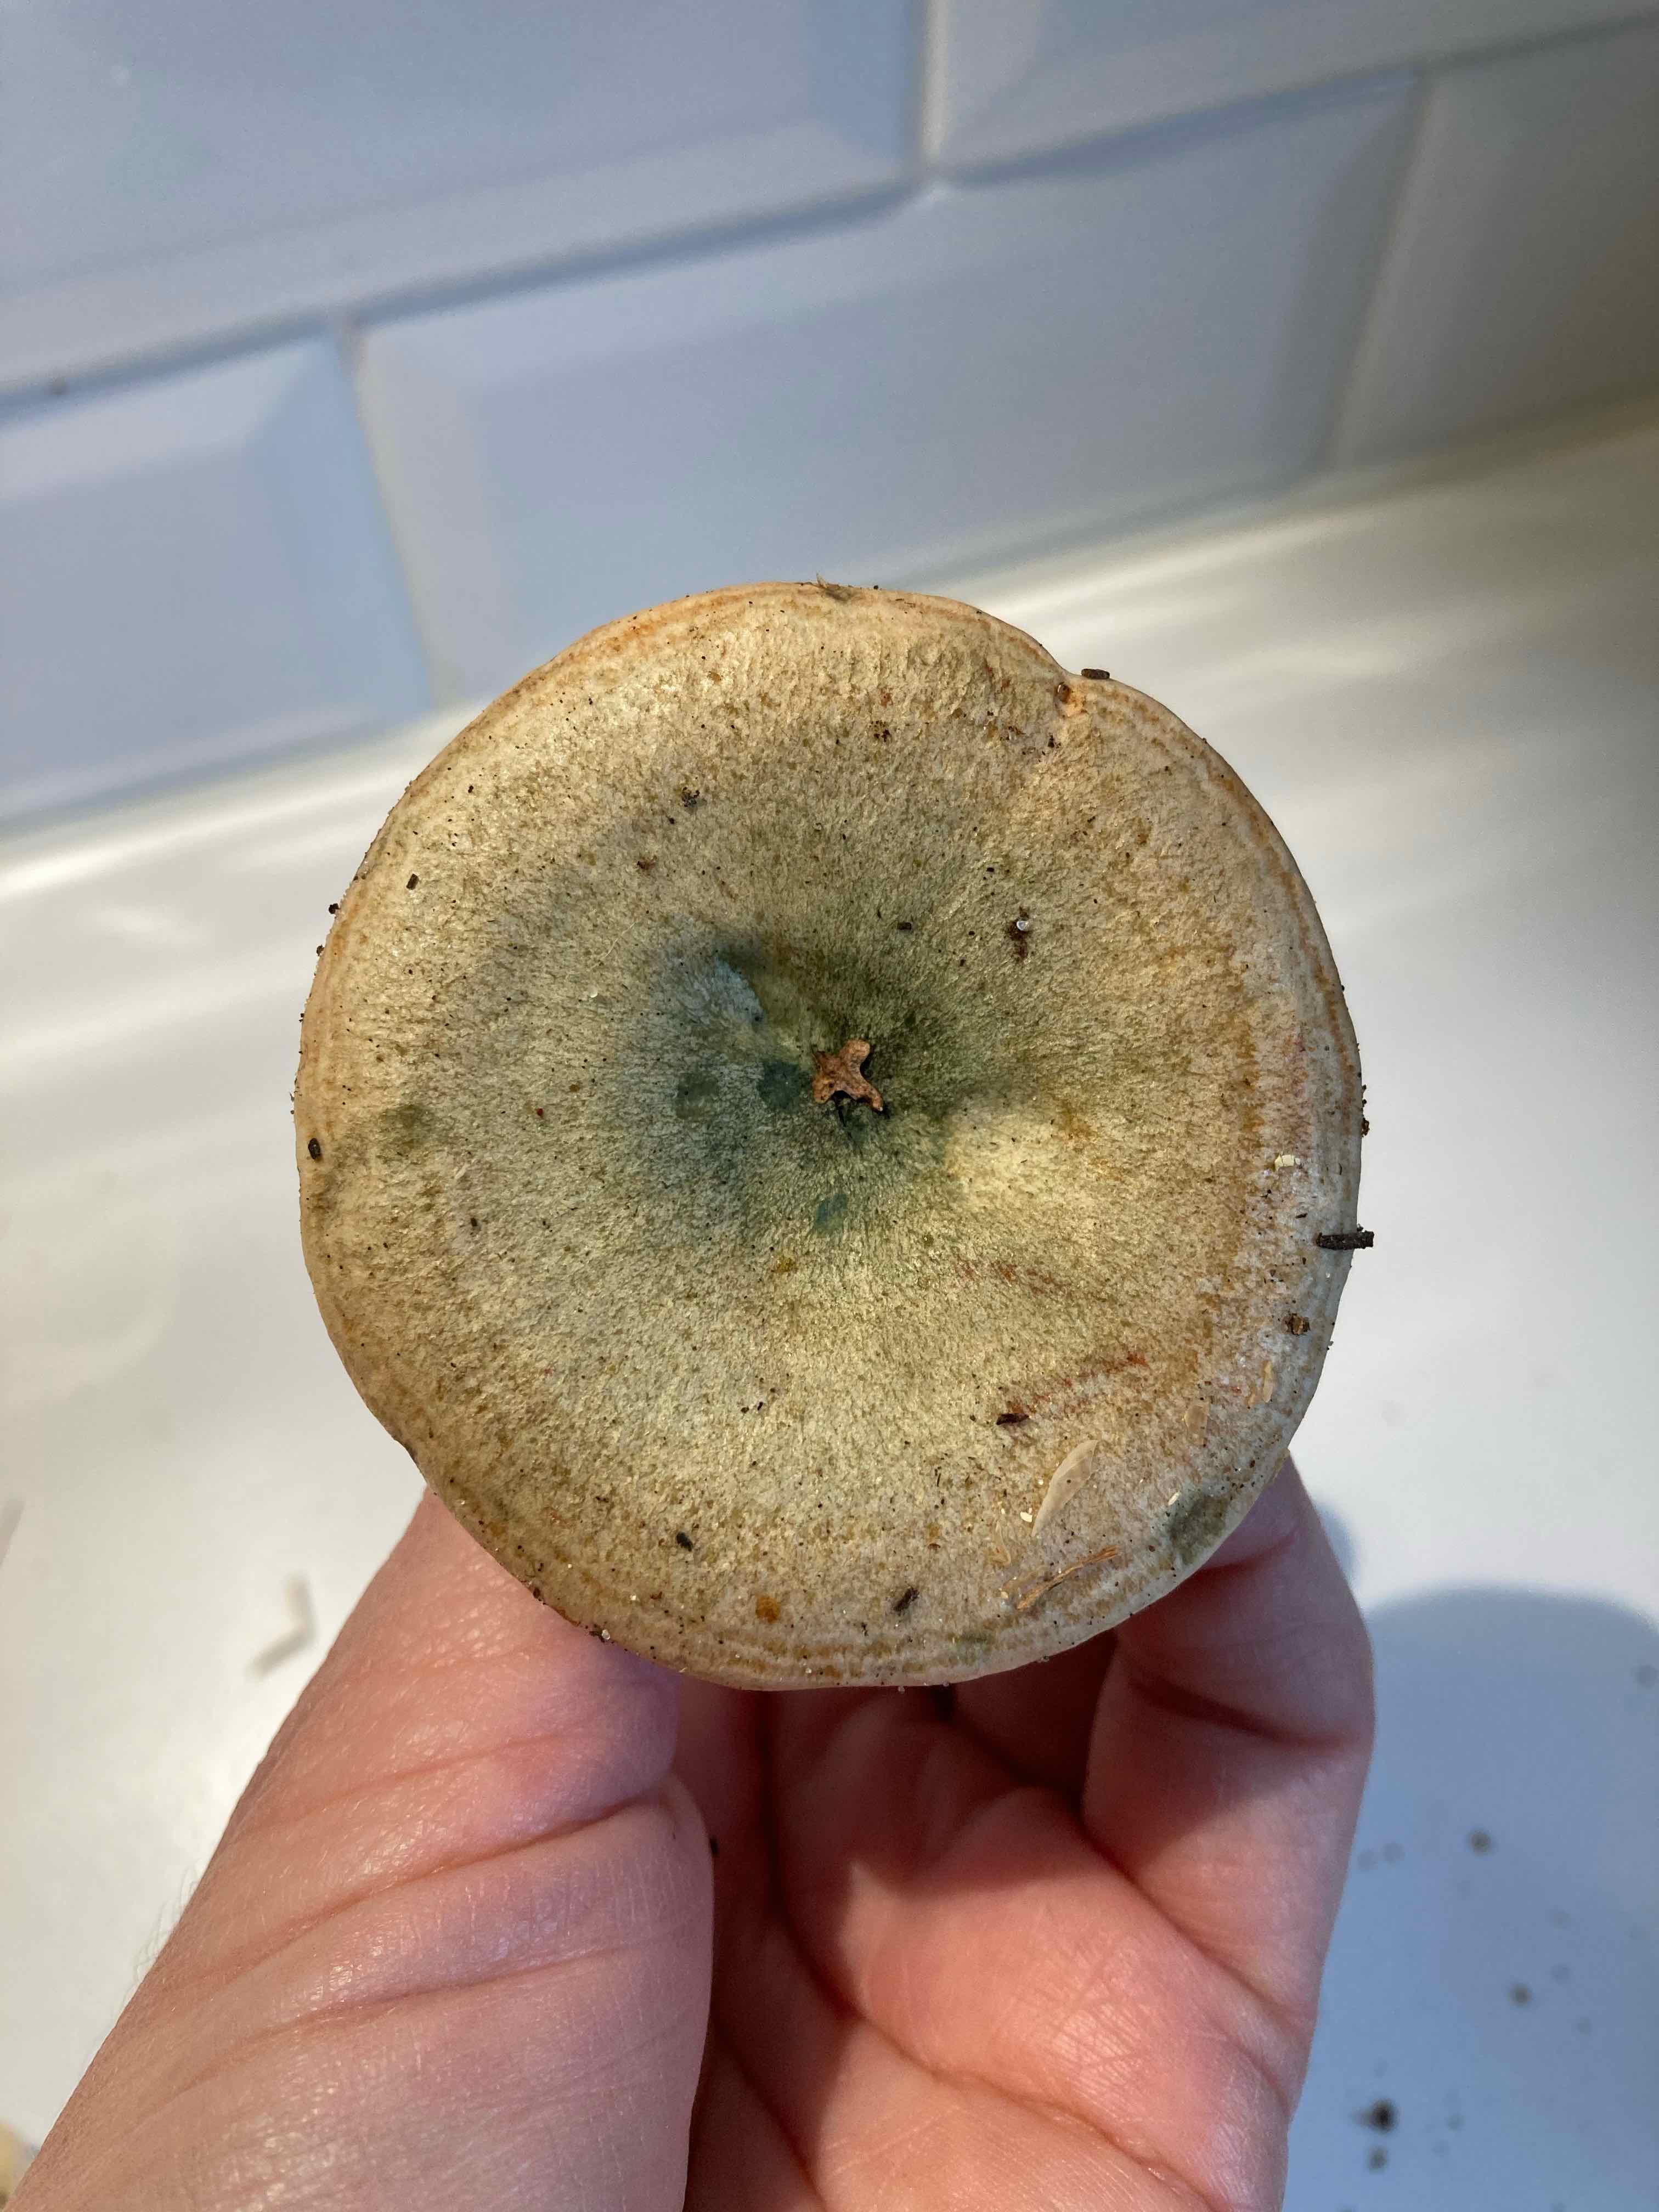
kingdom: Fungi
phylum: Basidiomycota
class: Agaricomycetes
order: Russulales
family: Russulaceae
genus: Lactarius
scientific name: Lactarius deterrimus
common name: gran-mælkehat
